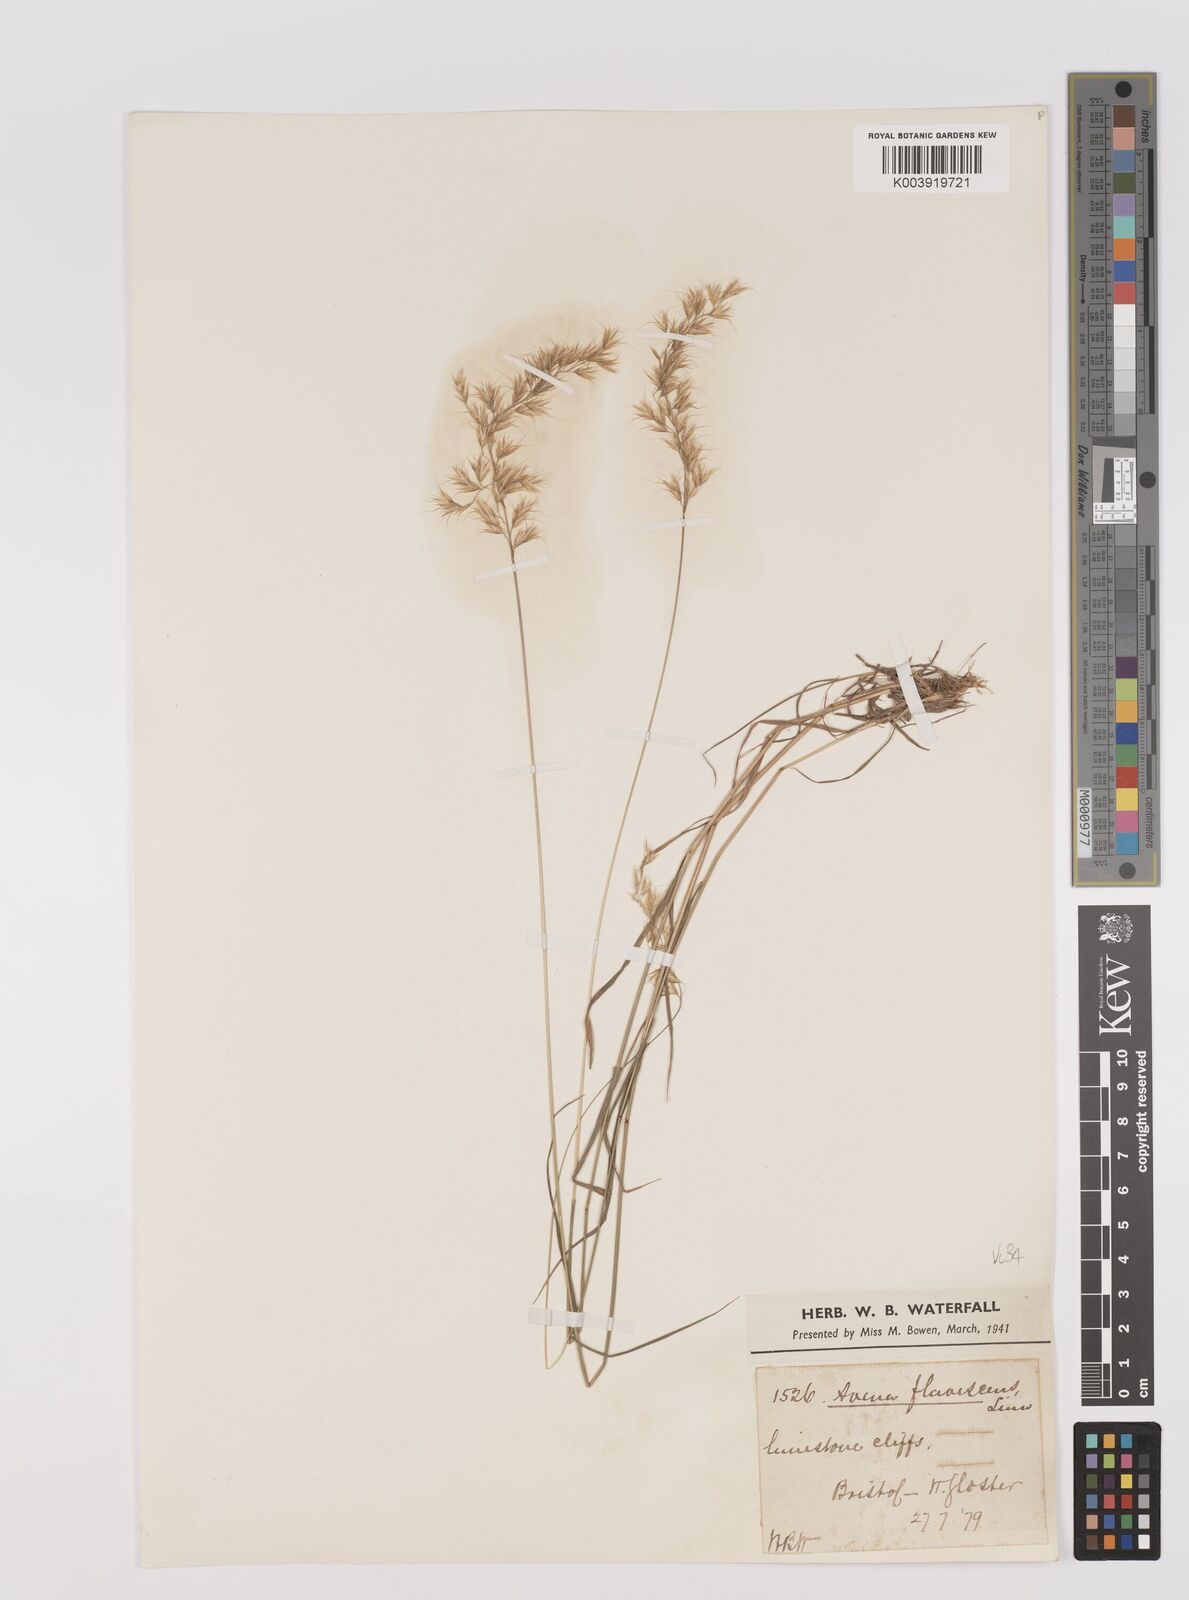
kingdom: Plantae
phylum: Tracheophyta
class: Liliopsida
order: Poales
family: Poaceae
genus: Trisetum
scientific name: Trisetum flavescens
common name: Yellow oat-grass
